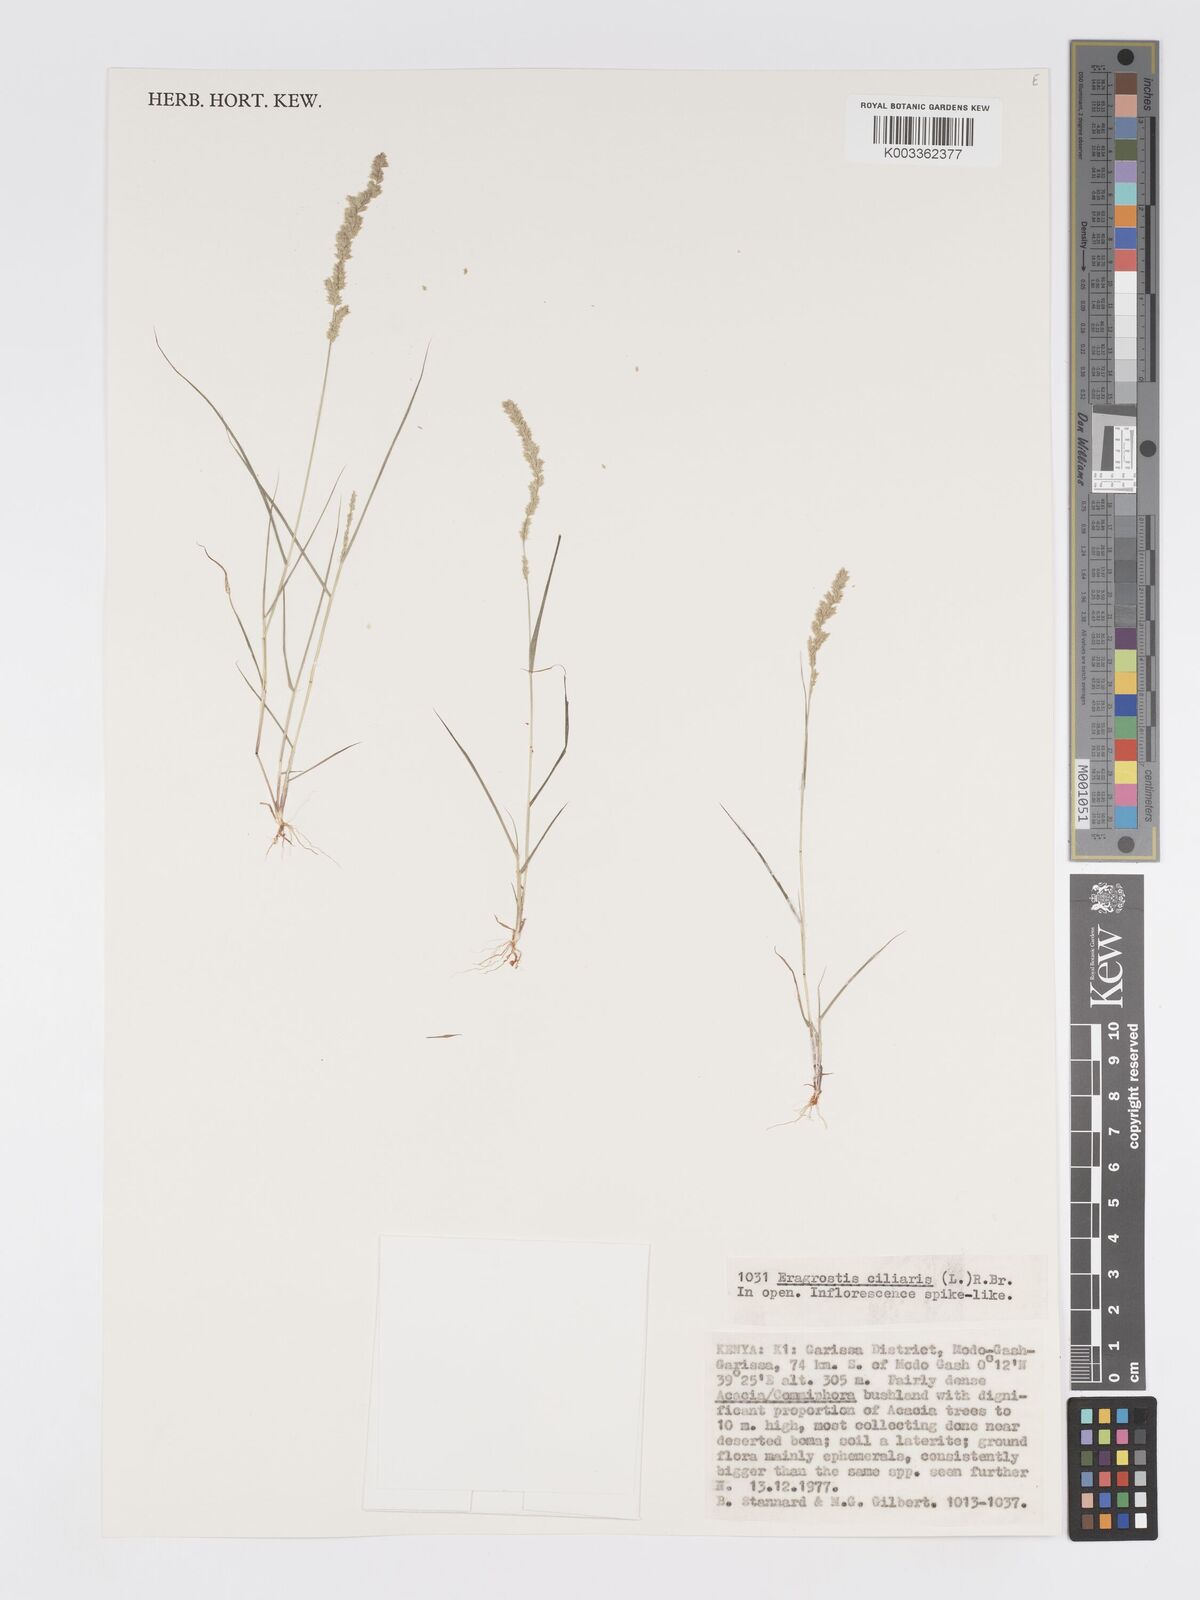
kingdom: Plantae
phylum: Tracheophyta
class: Liliopsida
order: Poales
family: Poaceae
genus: Eragrostis
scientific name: Eragrostis ciliaris
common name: Gophertail lovegrass
